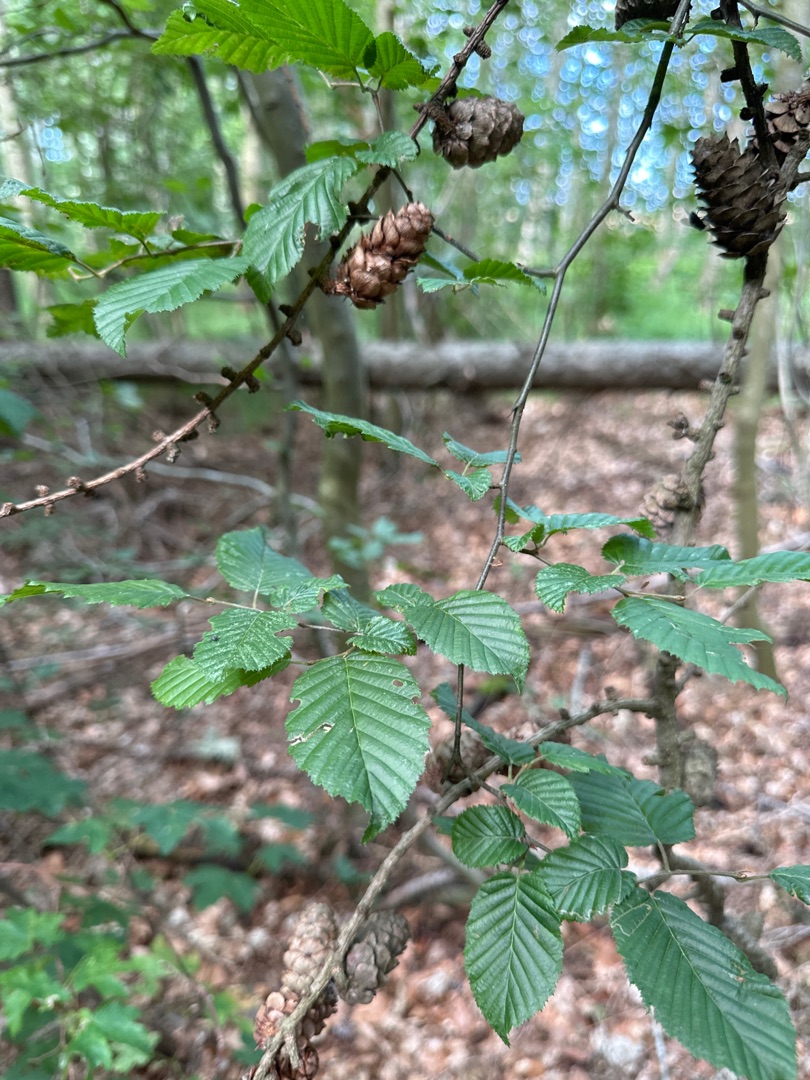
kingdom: Plantae
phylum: Tracheophyta
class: Magnoliopsida
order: Fagales
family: Betulaceae
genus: Carpinus
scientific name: Carpinus betulus
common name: Avnbøg
